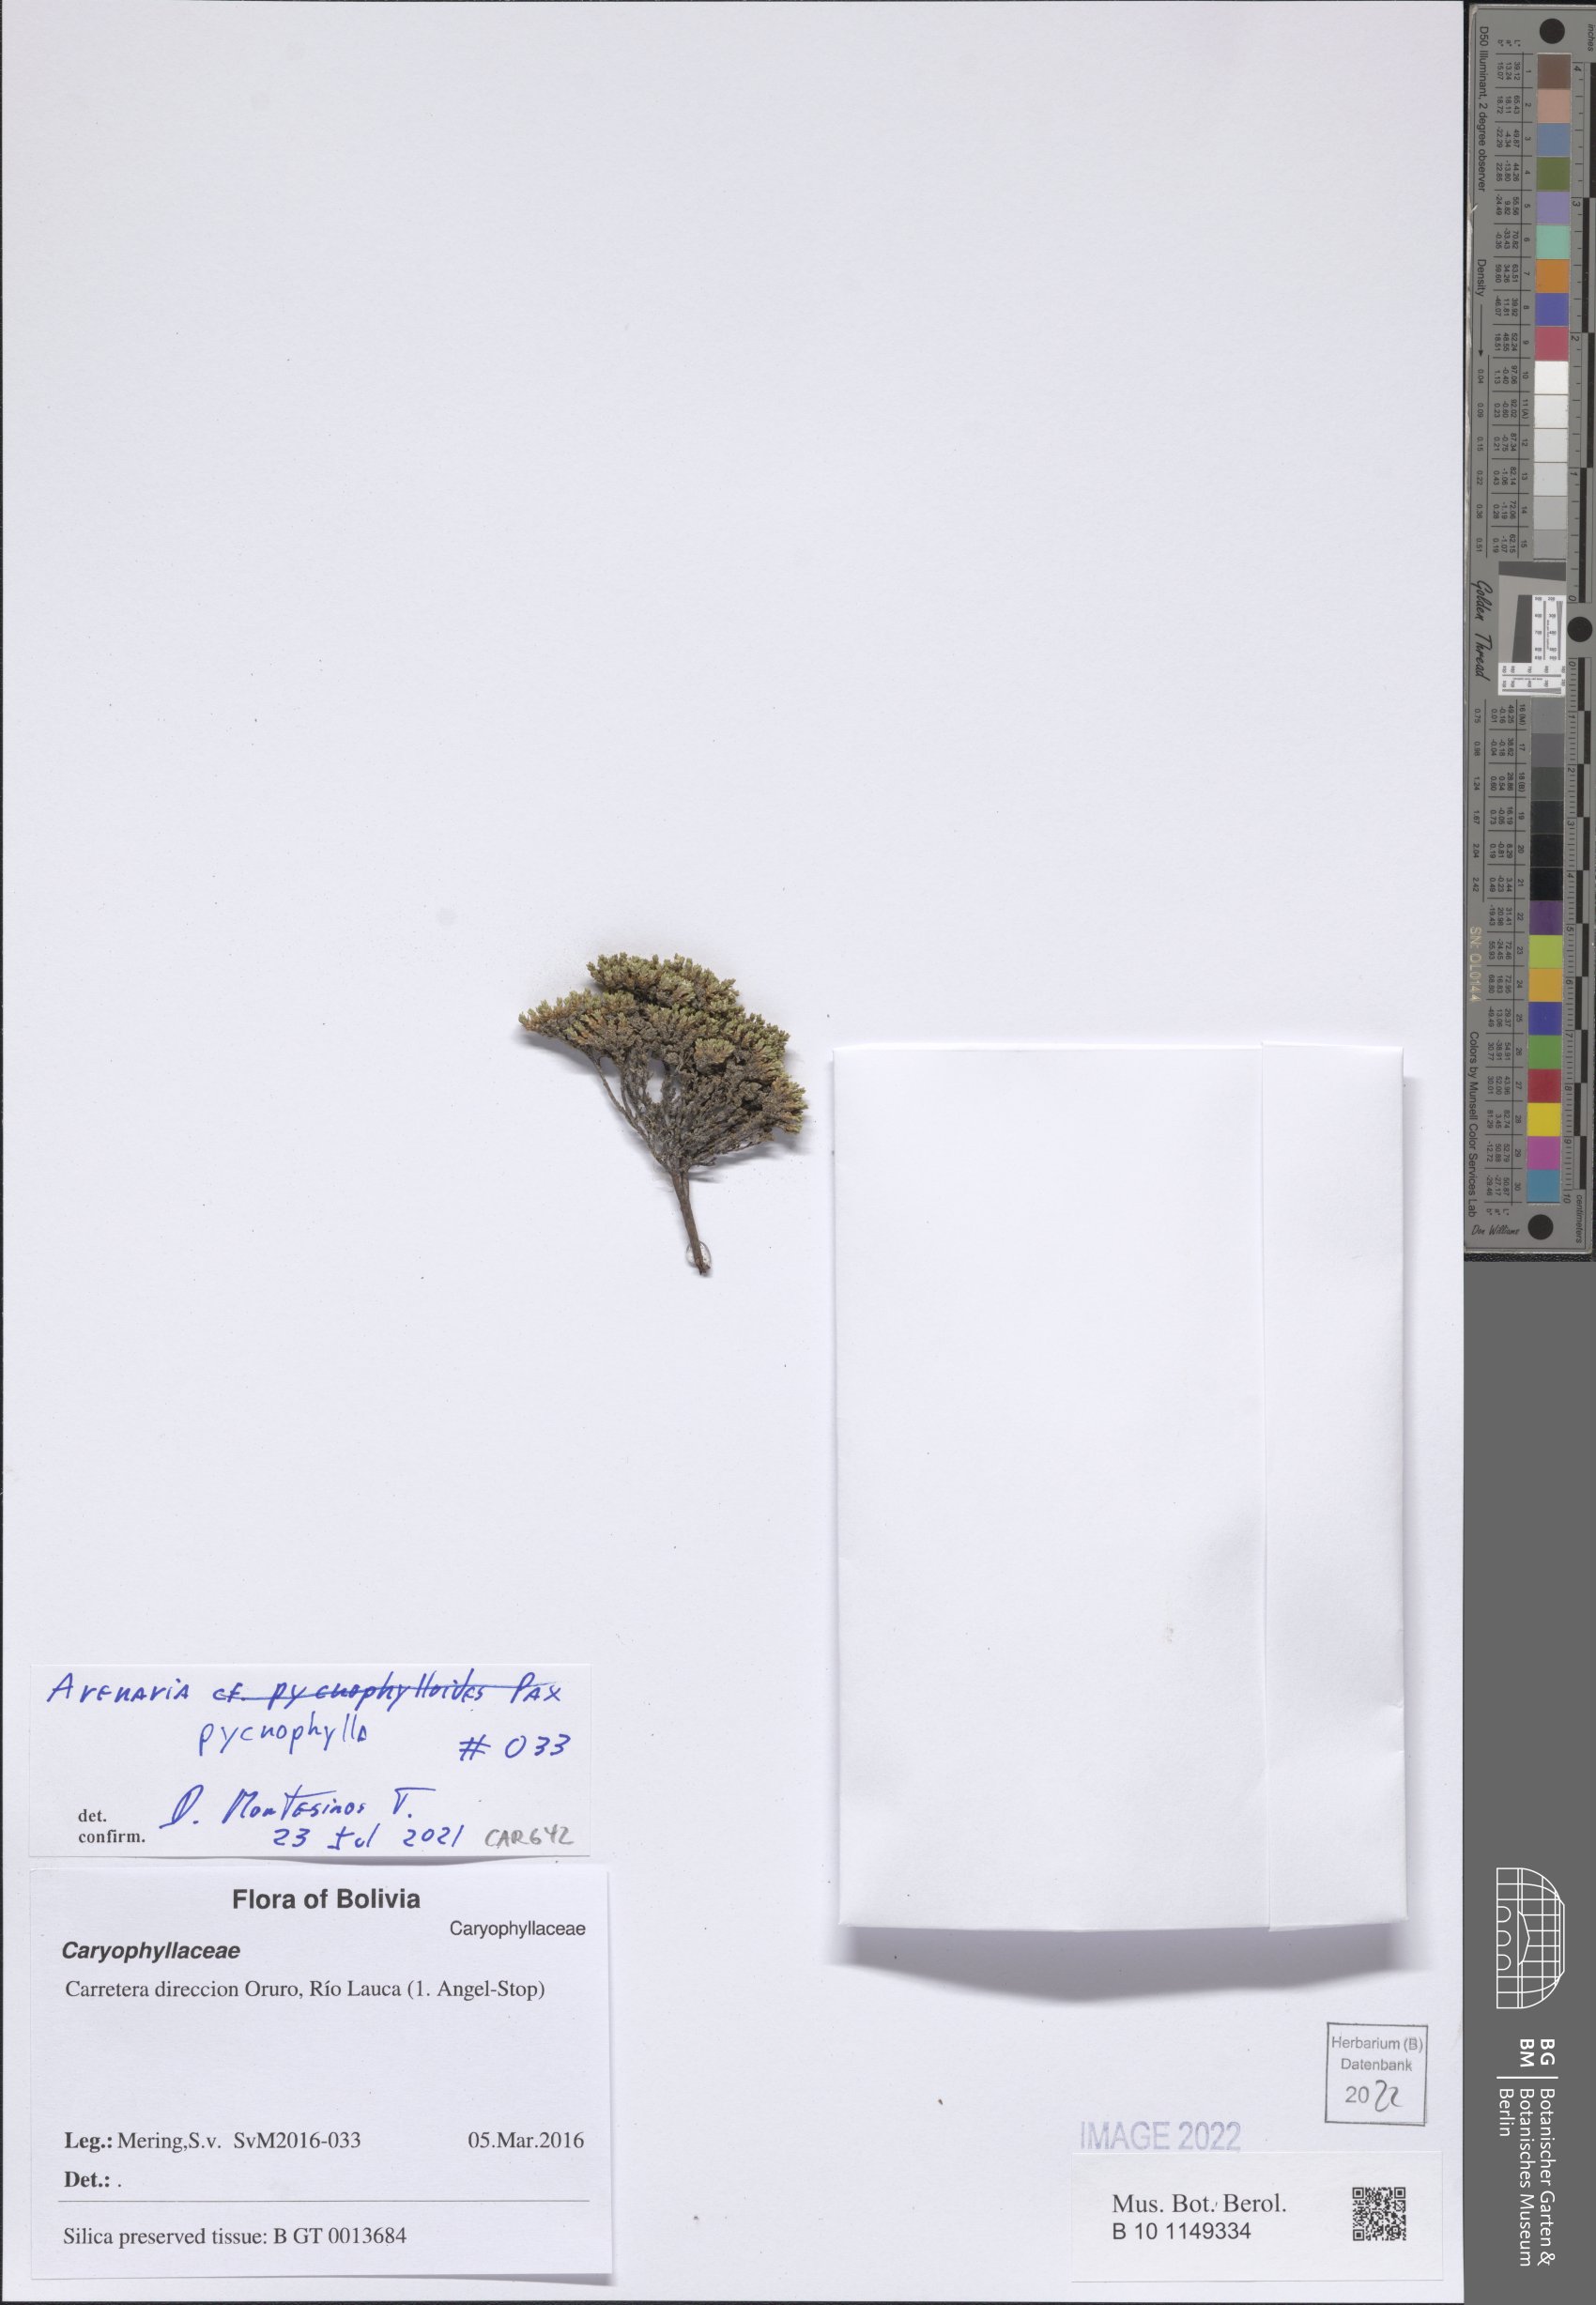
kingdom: Plantae
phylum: Tracheophyta
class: Magnoliopsida
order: Caryophyllales
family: Caryophyllaceae
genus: Arenaria
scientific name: Arenaria pycnophylla
